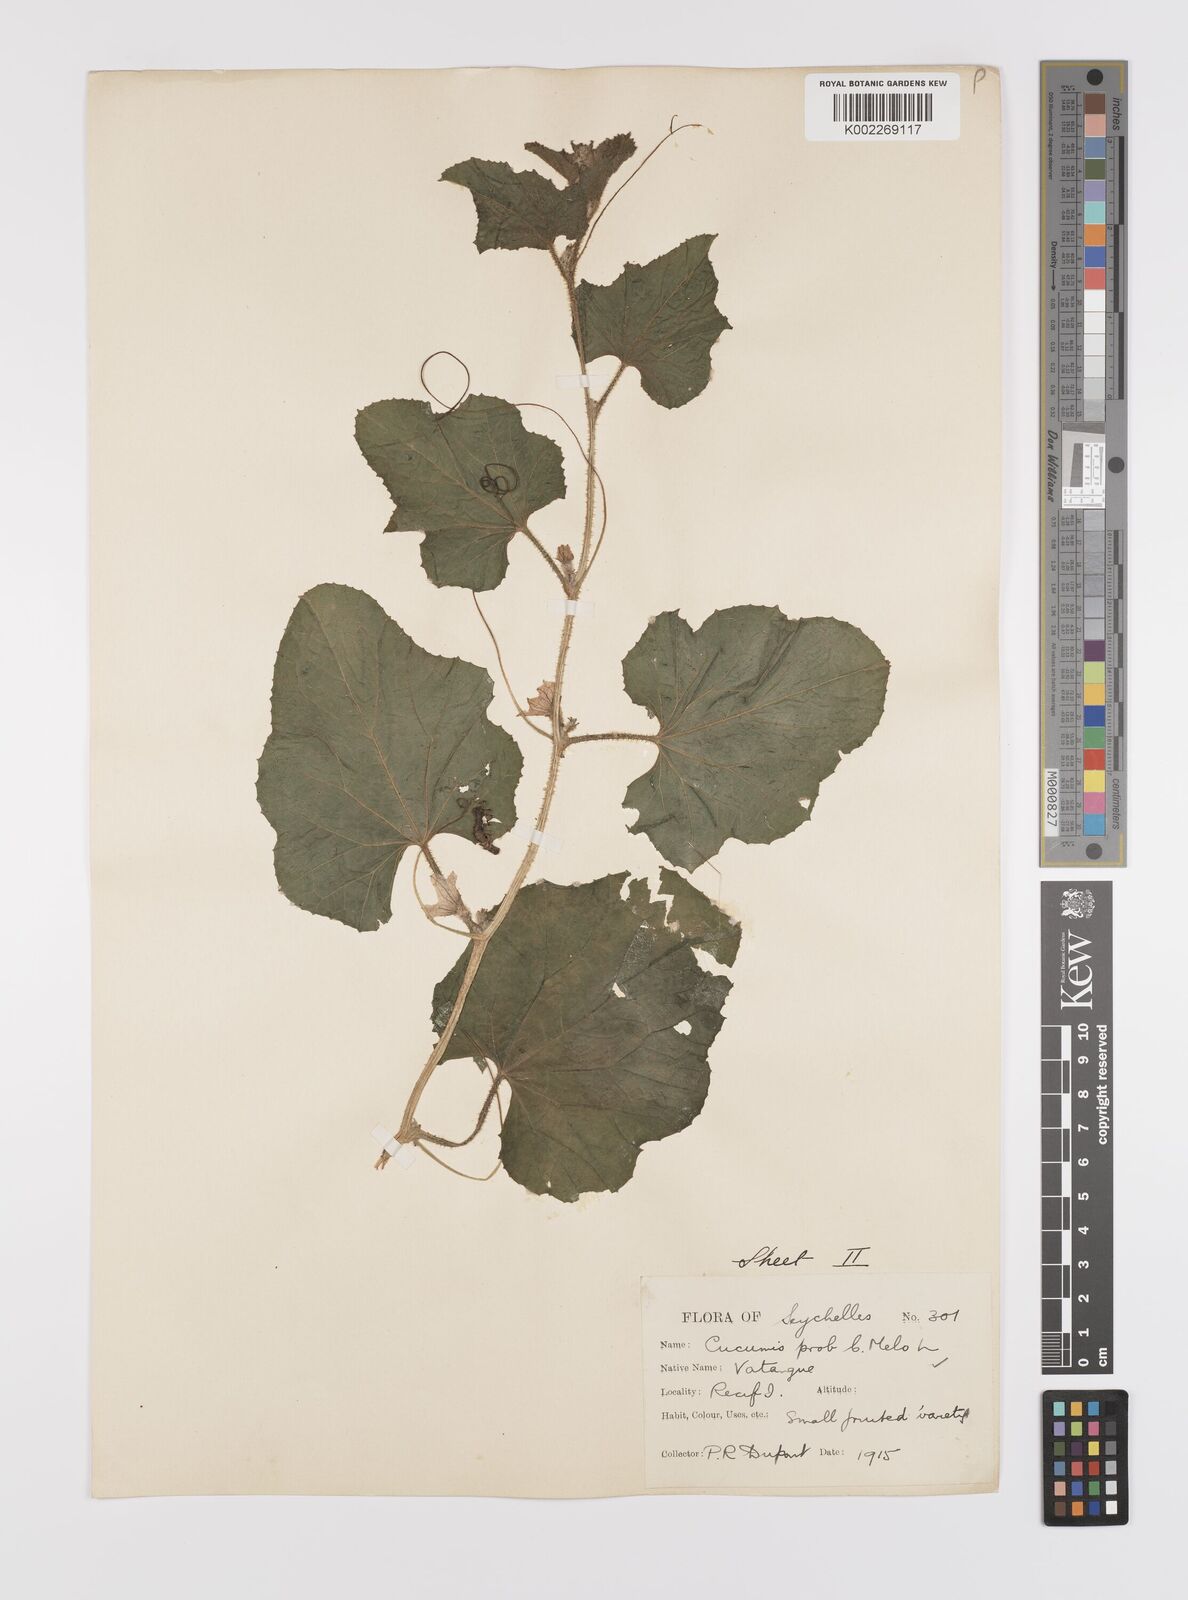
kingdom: Plantae
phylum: Tracheophyta
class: Magnoliopsida
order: Cucurbitales
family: Cucurbitaceae
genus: Cucumis
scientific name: Cucumis melo
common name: Melon
